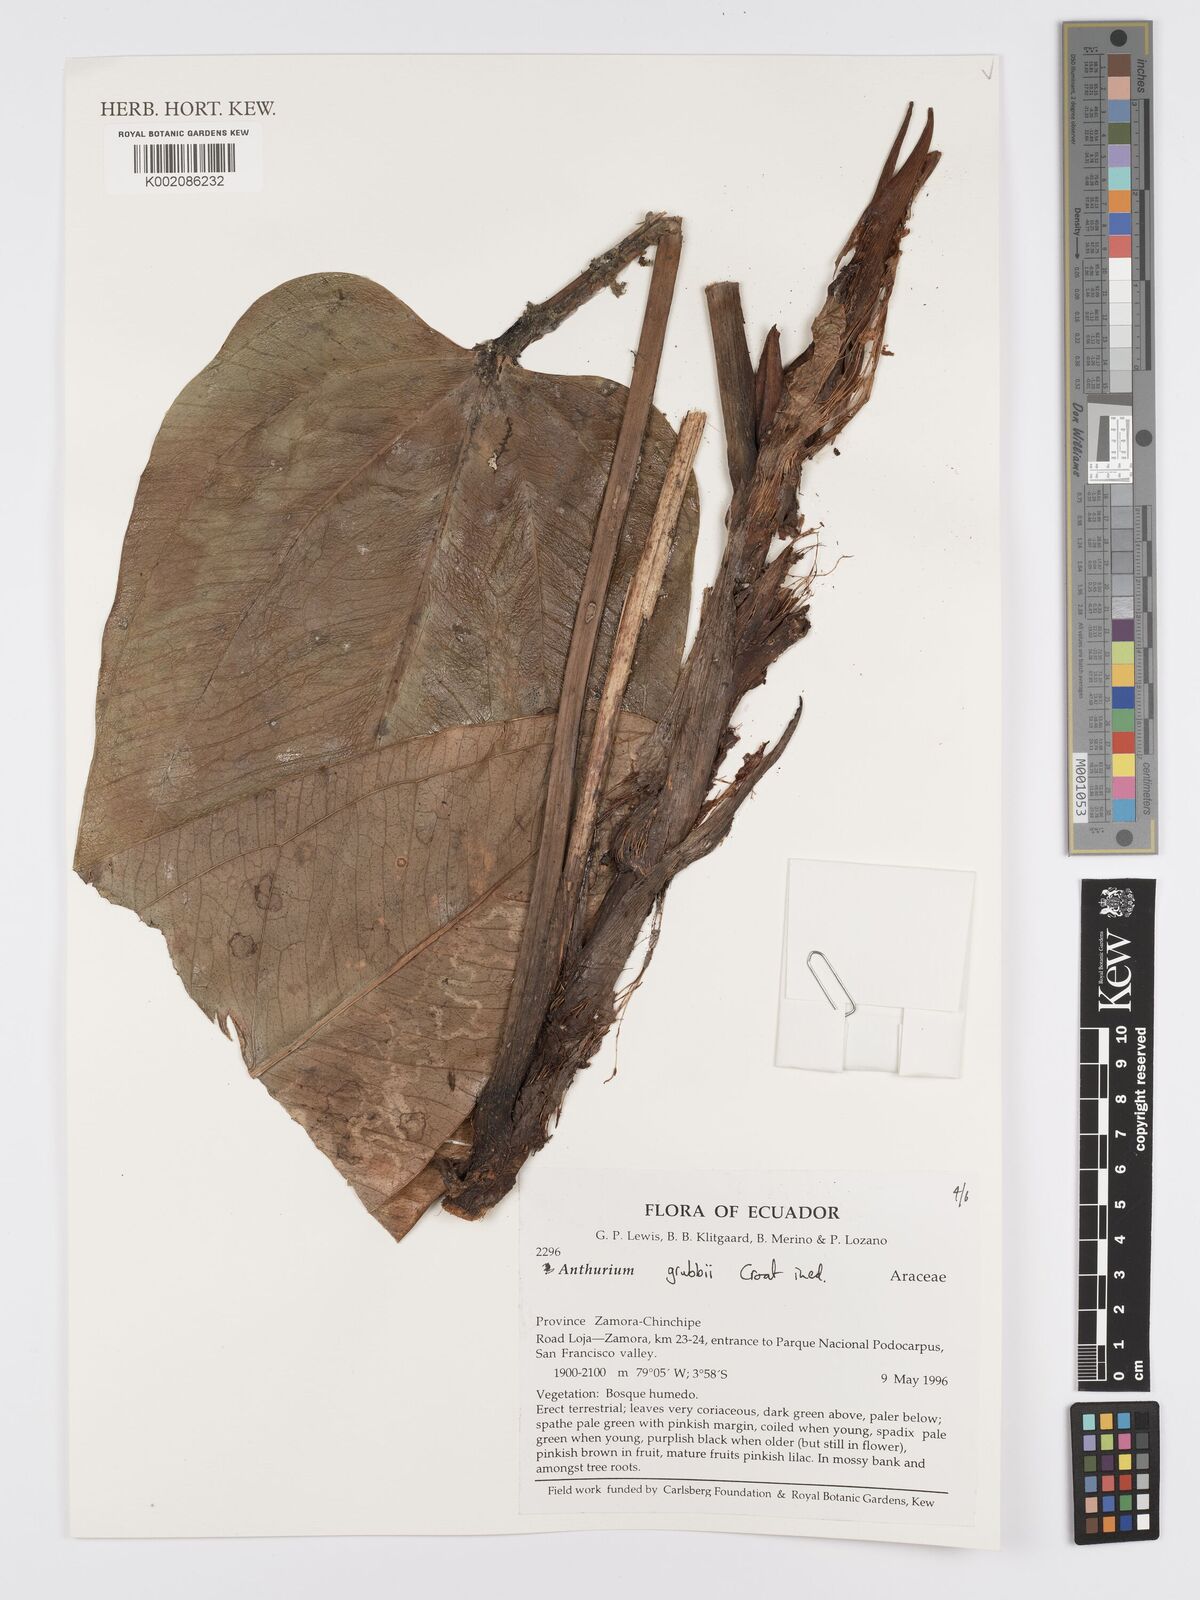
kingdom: Plantae
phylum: Tracheophyta
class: Liliopsida
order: Alismatales
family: Araceae
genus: Anthurium
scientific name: Anthurium
